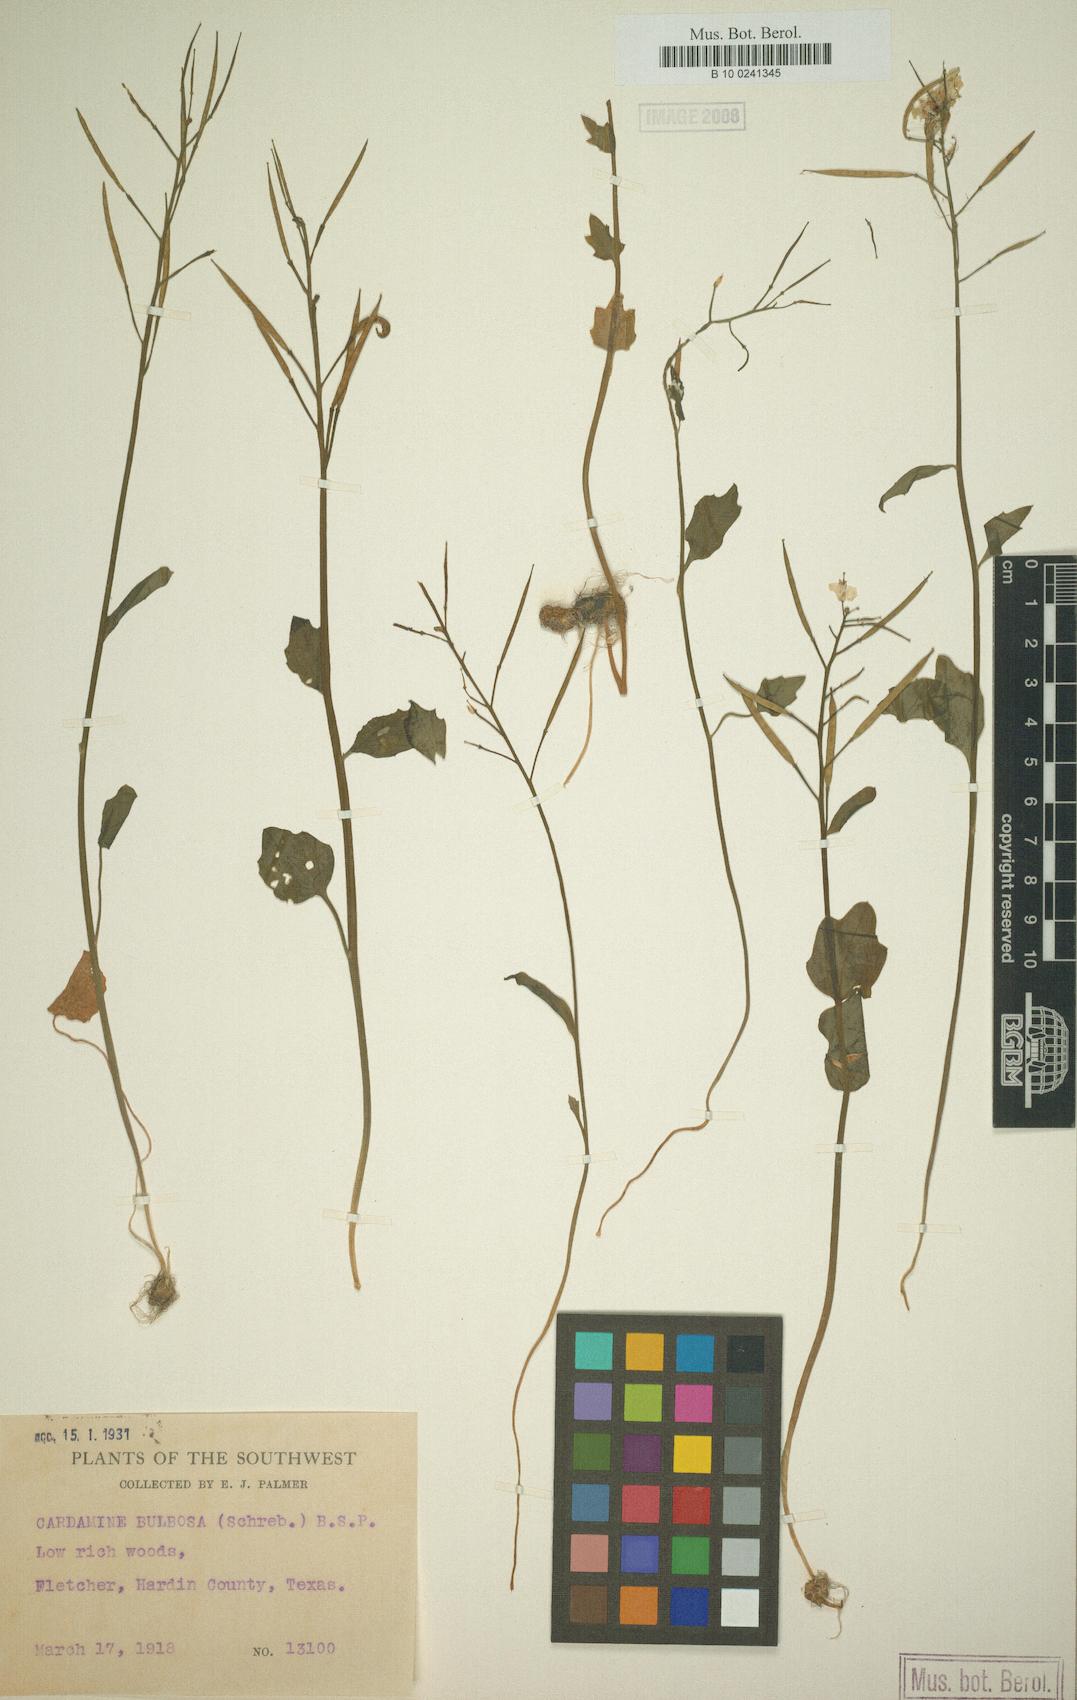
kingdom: Plantae
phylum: Tracheophyta
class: Magnoliopsida
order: Brassicales
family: Brassicaceae
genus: Cardamine
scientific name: Cardamine bulbosa
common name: Spring cress
